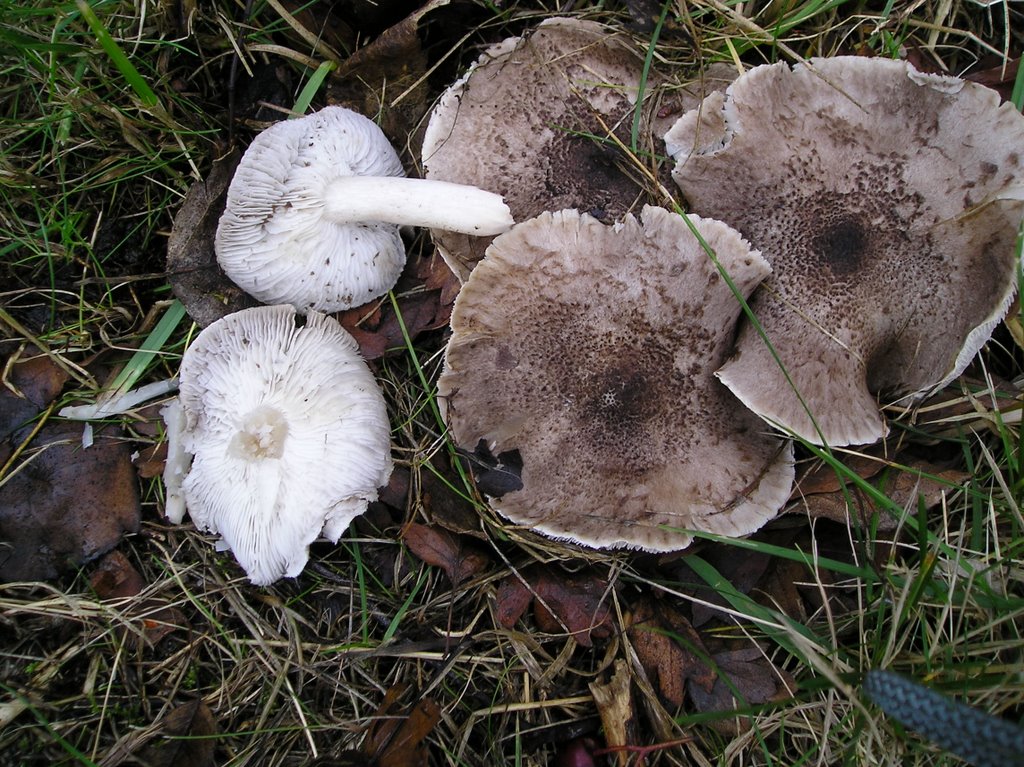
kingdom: Fungi
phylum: Basidiomycota
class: Agaricomycetes
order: Agaricales
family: Tricholomataceae
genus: Tricholoma
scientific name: Tricholoma scalpturatum
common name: gulplettet ridderhat
